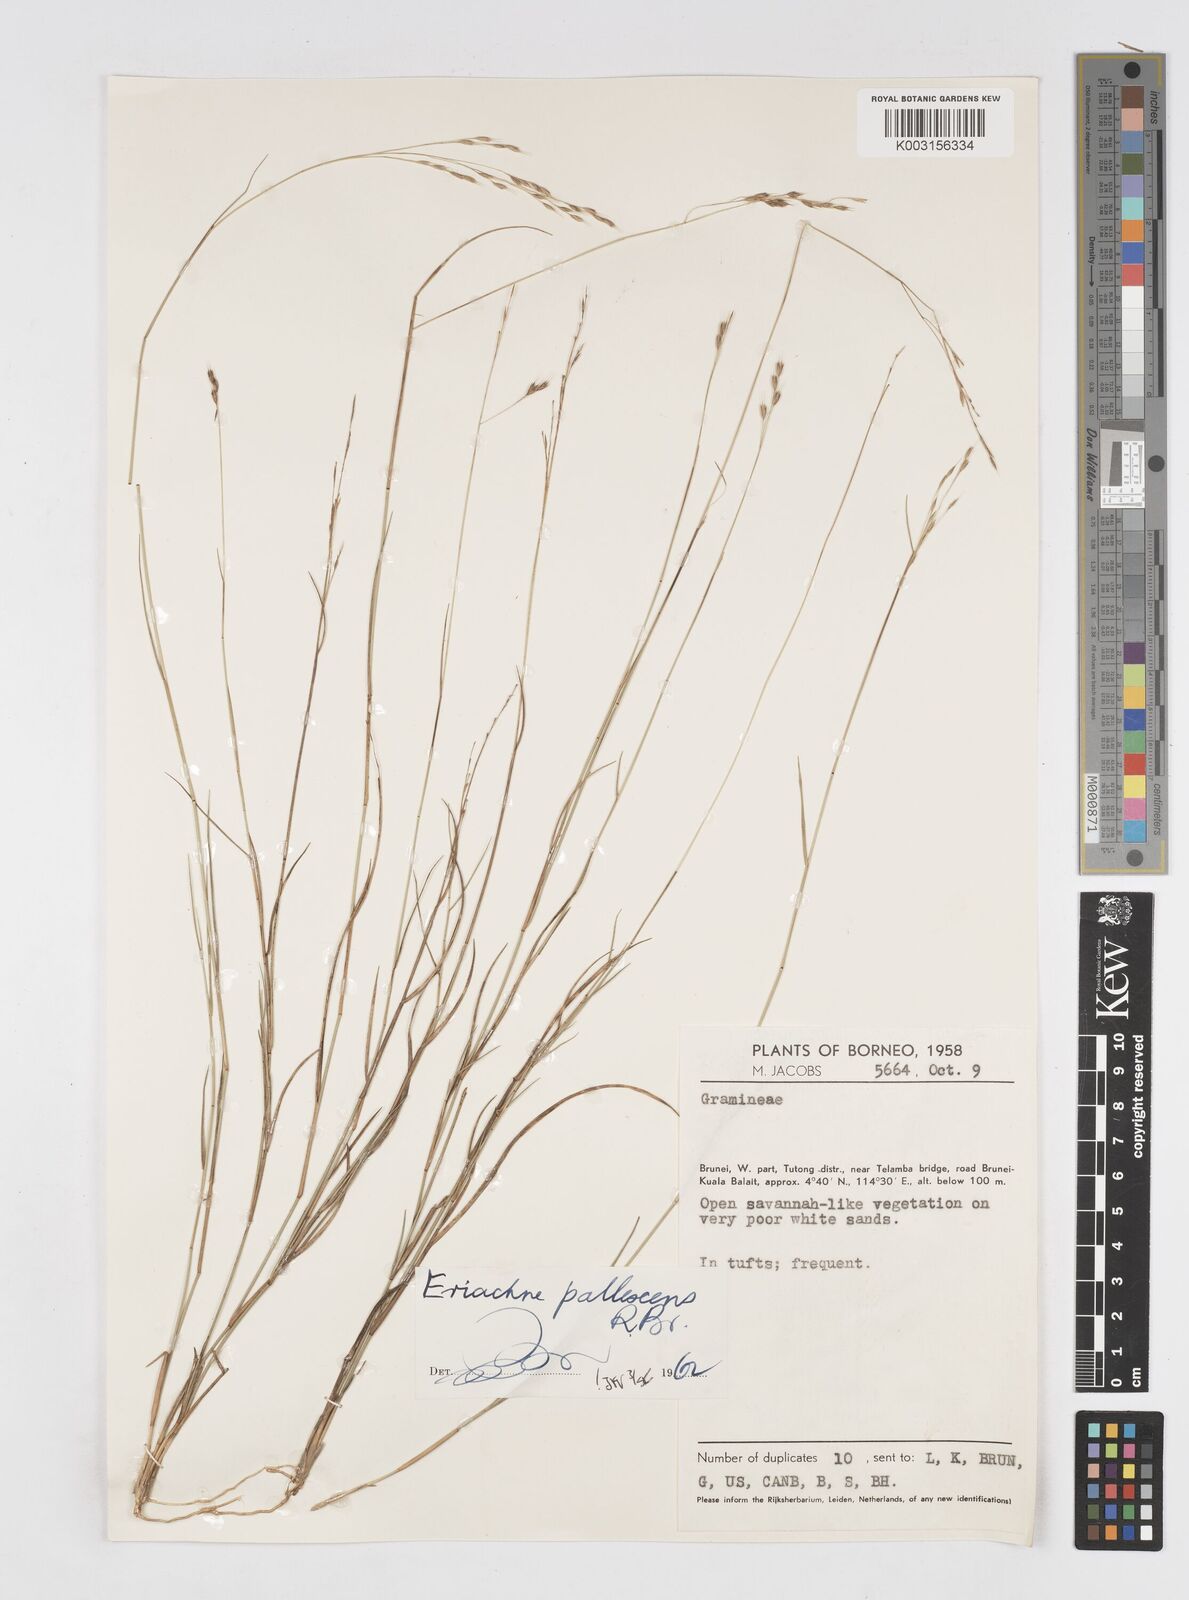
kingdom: Plantae
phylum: Tracheophyta
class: Liliopsida
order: Poales
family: Poaceae
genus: Eriachne
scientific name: Eriachne pallescens
